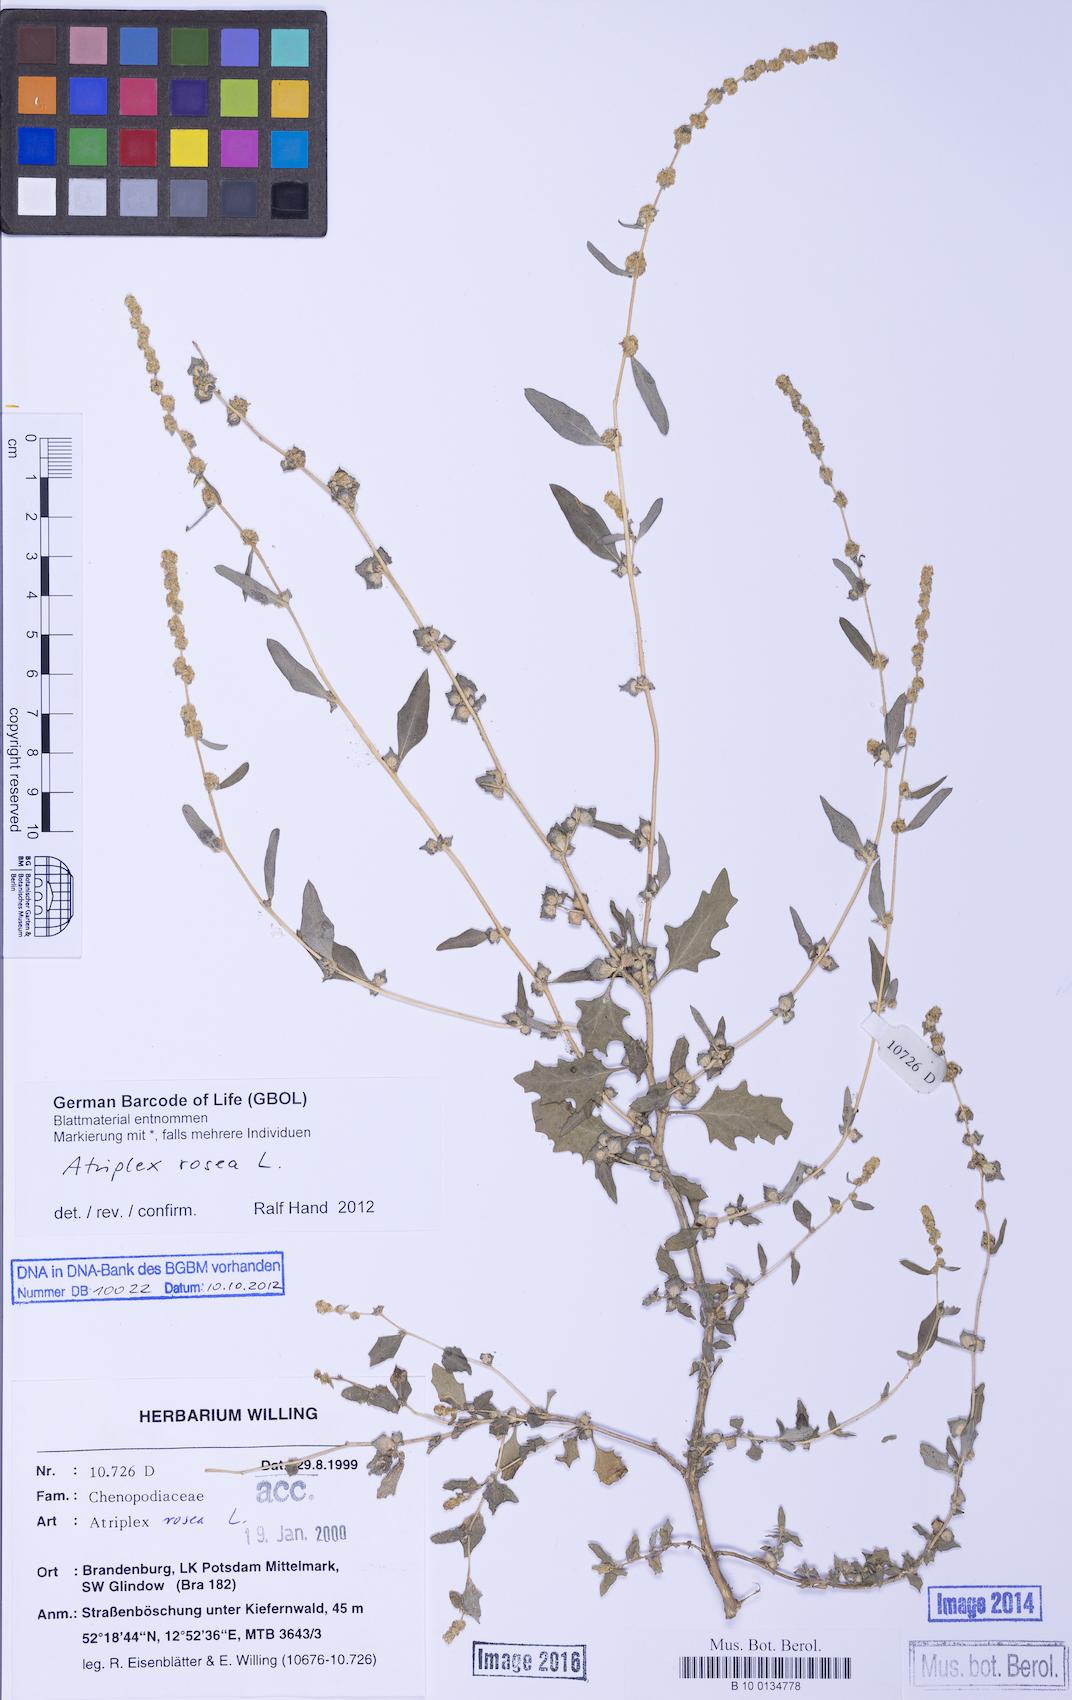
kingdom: Plantae
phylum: Tracheophyta
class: Magnoliopsida
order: Caryophyllales
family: Amaranthaceae
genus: Atriplex
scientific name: Atriplex rosea
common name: Tumbling saltweed
